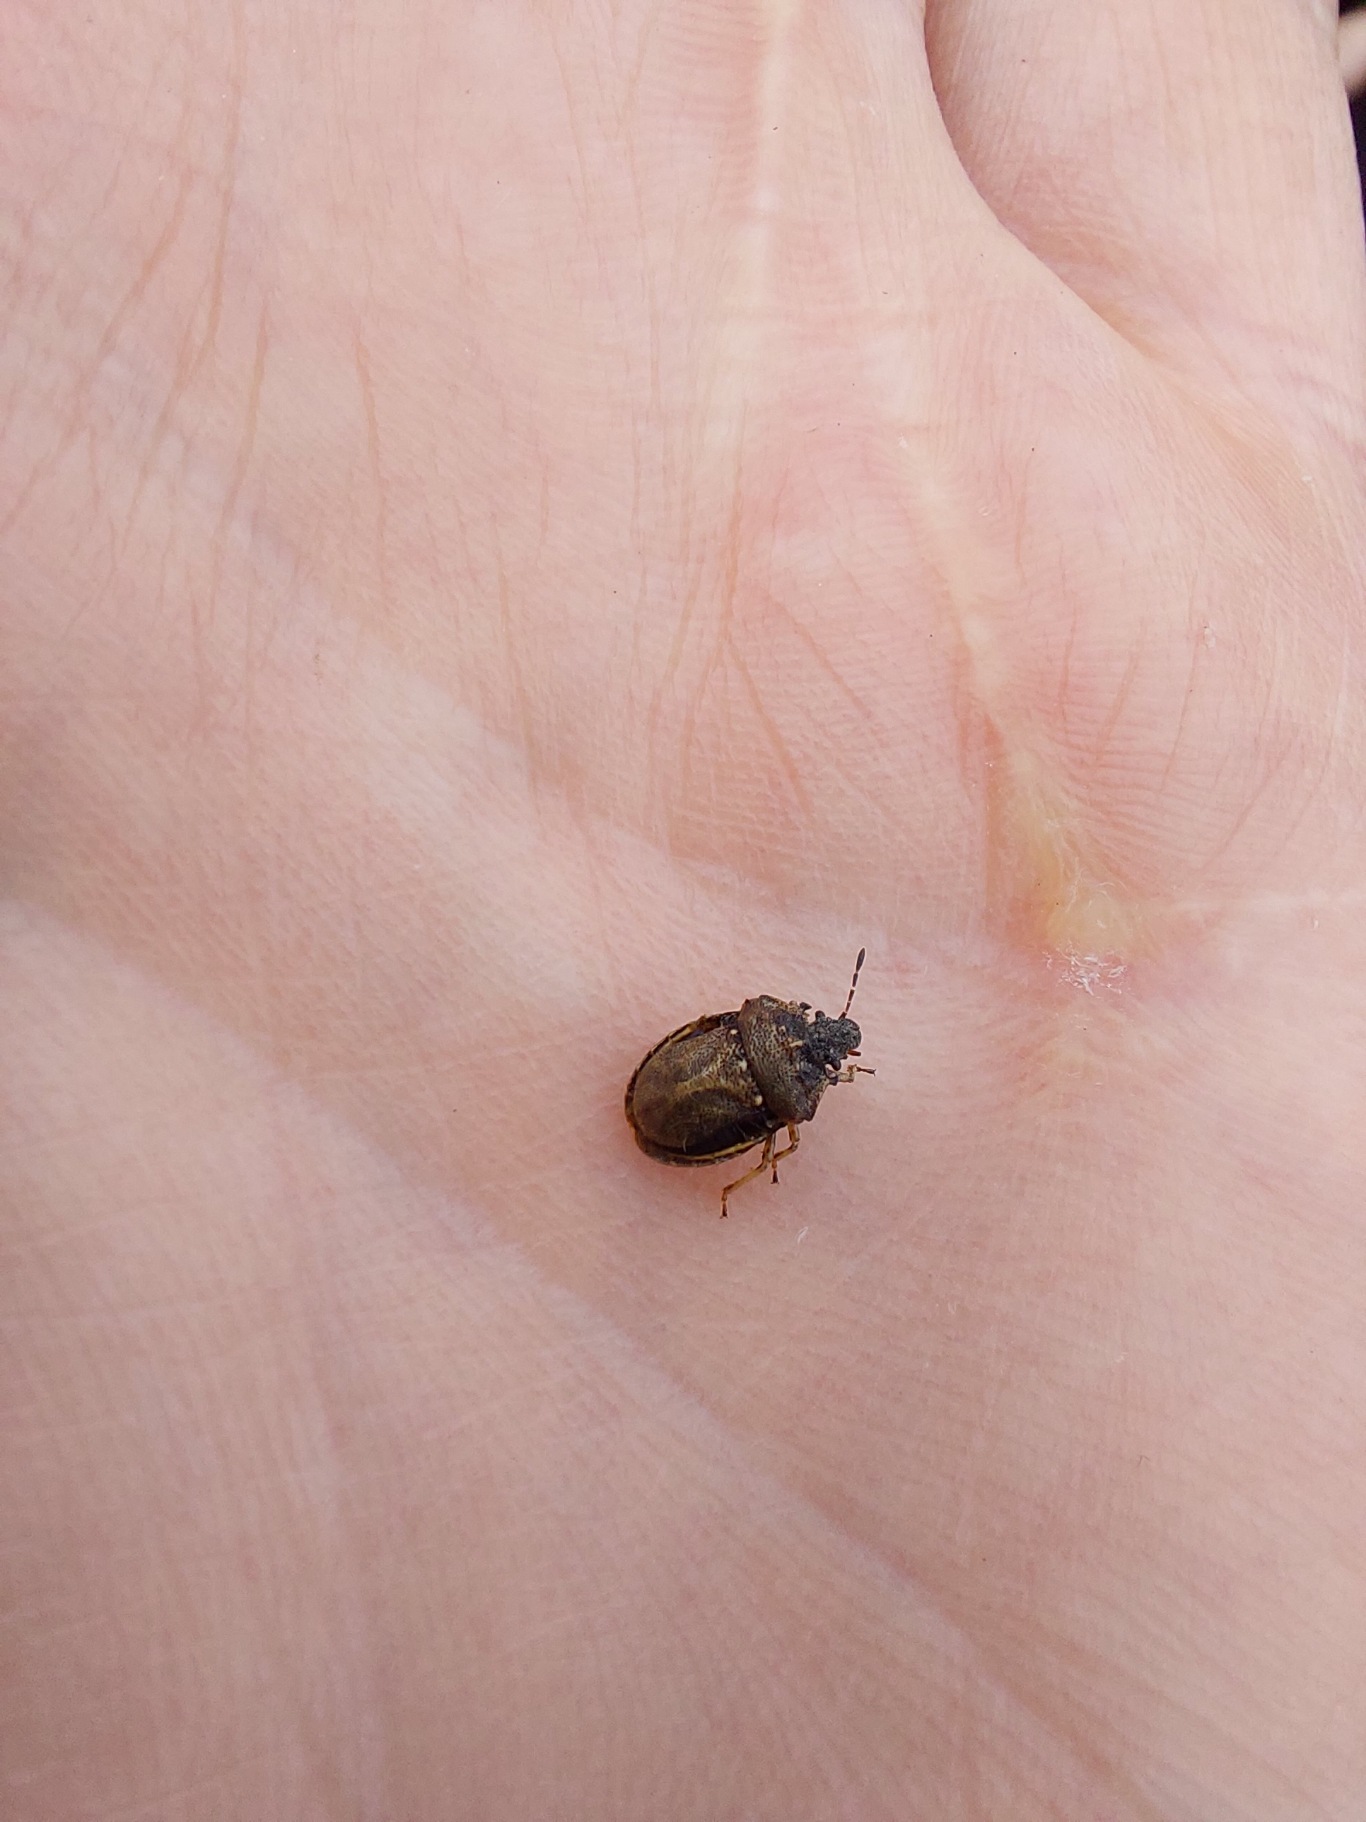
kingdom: Animalia
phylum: Arthropoda
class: Insecta
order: Hemiptera
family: Pentatomidae
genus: Podops
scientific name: Podops inunctus
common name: Krogtæge
